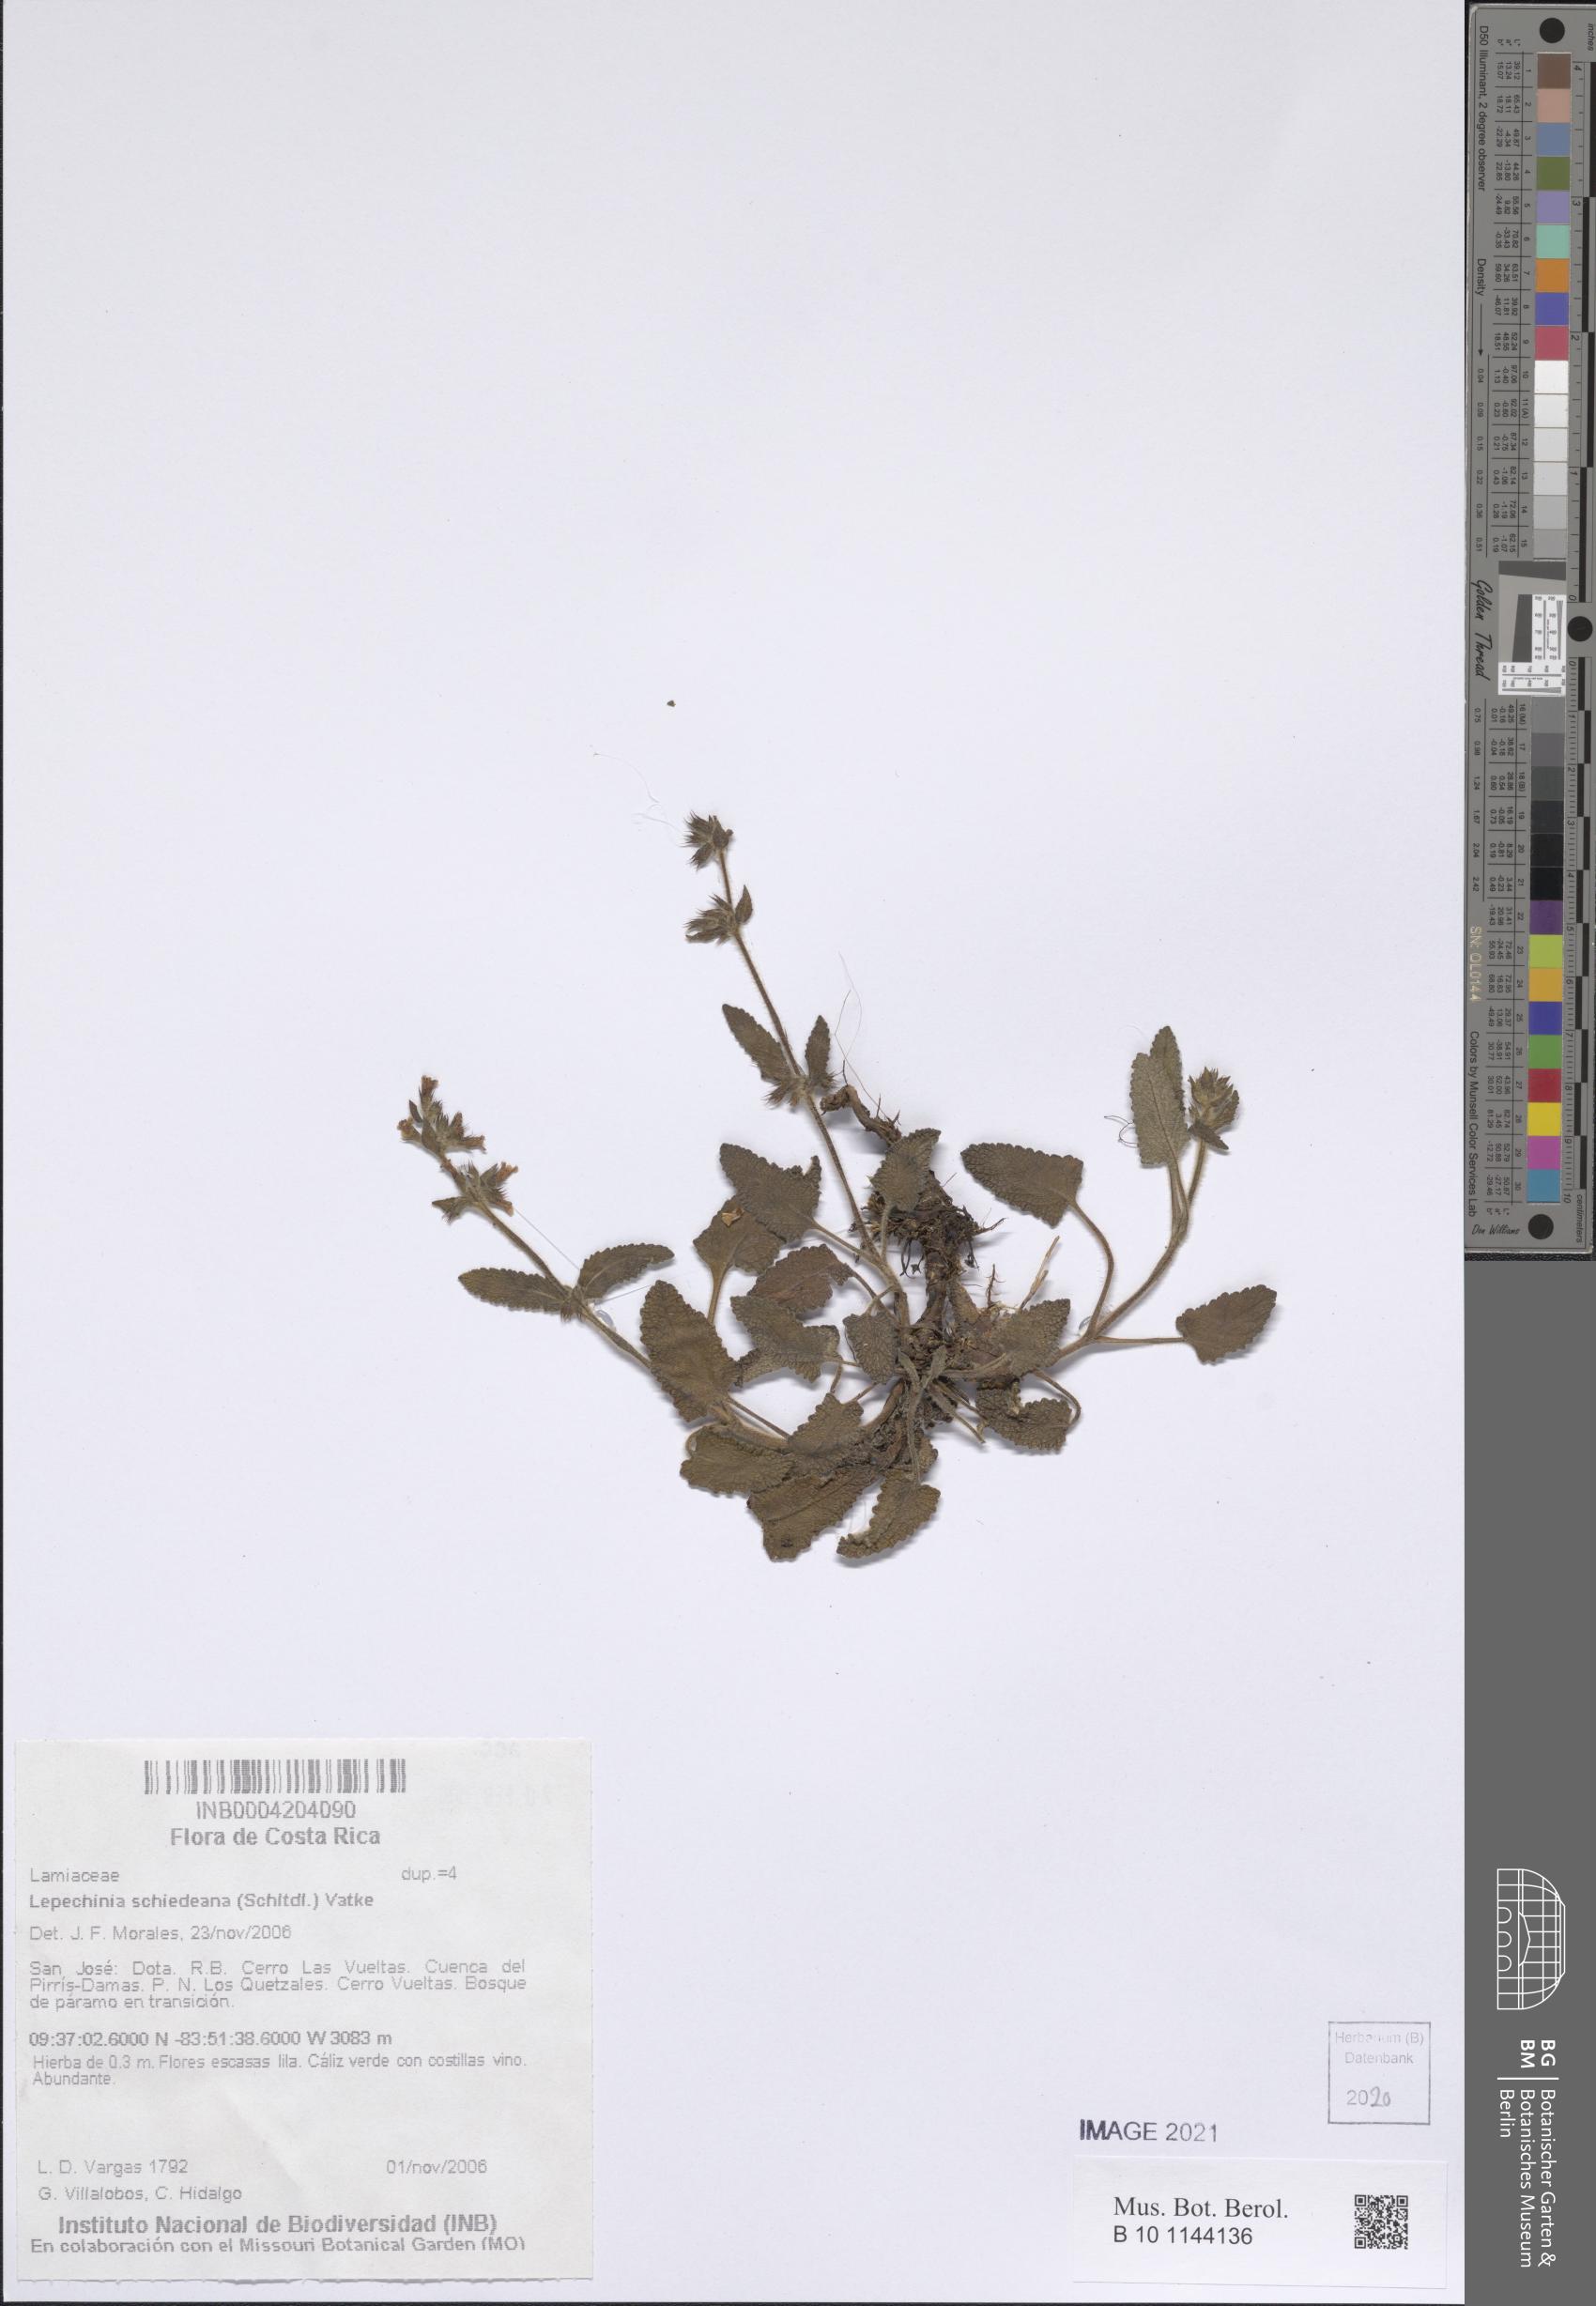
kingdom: Plantae
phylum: Tracheophyta
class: Magnoliopsida
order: Lamiales
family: Lamiaceae
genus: Lepechinia
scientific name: Lepechinia schiedeana
